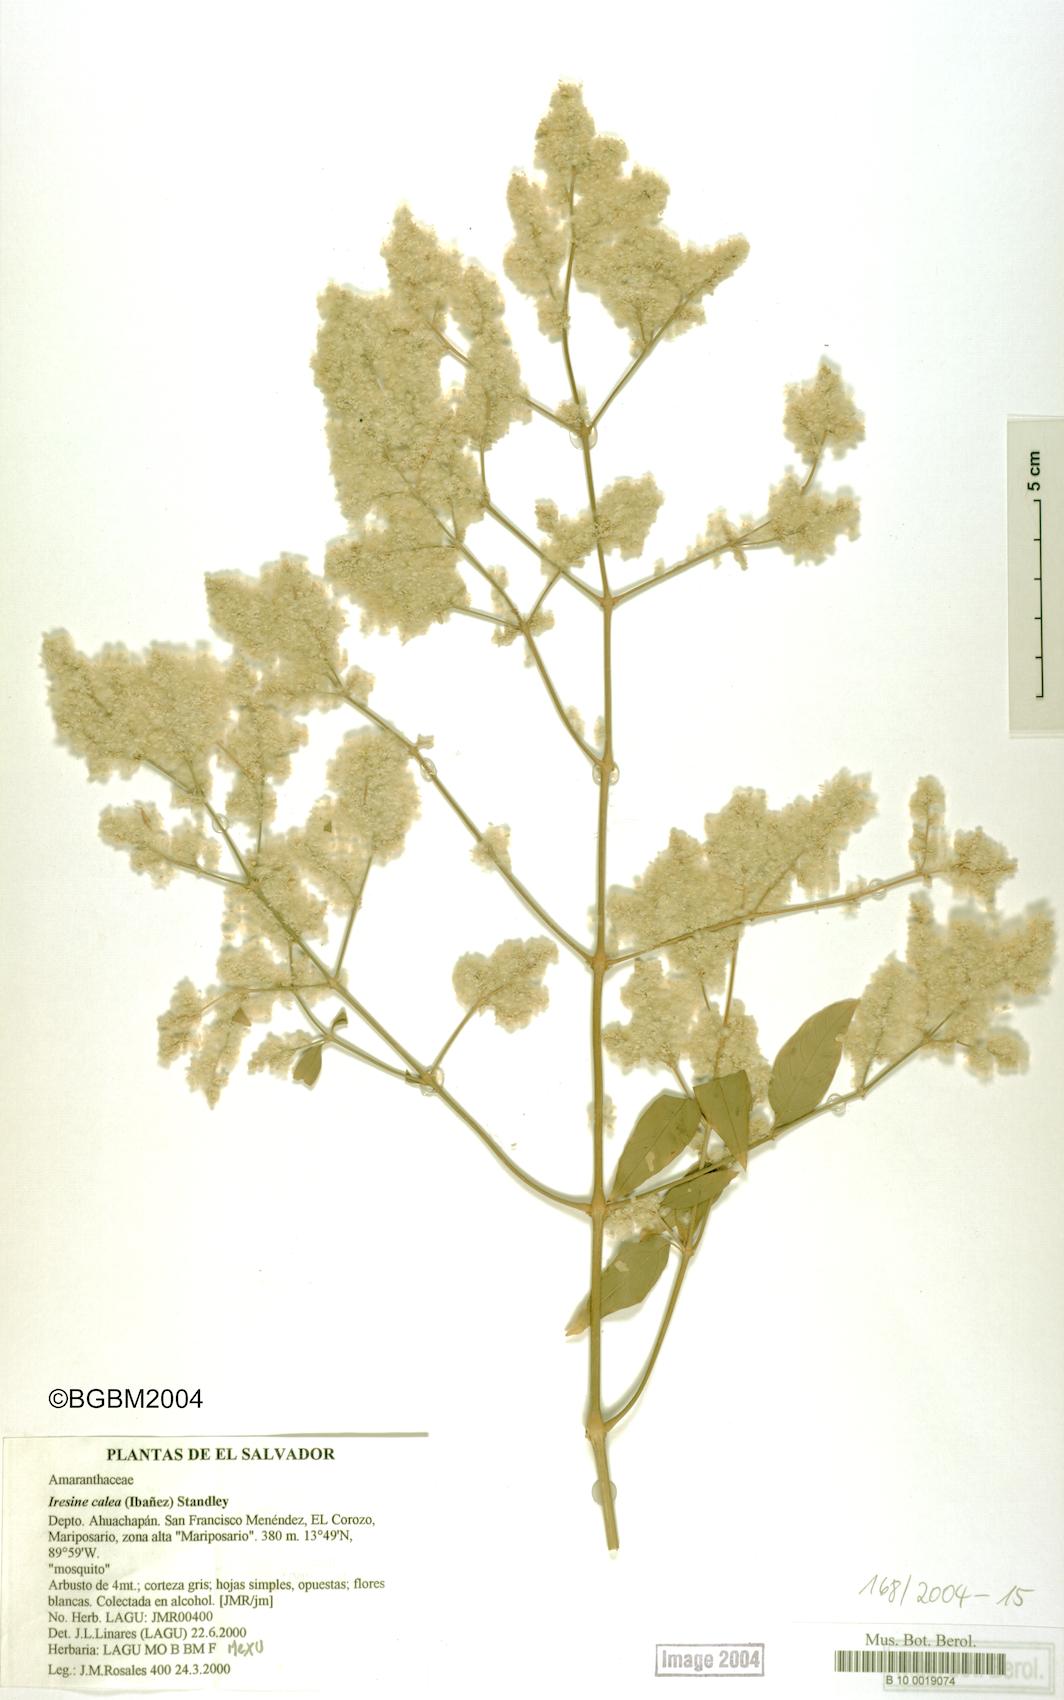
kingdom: Plantae
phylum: Tracheophyta
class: Magnoliopsida
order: Caryophyllales
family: Amaranthaceae
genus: Iresine
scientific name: Iresine latifolia
